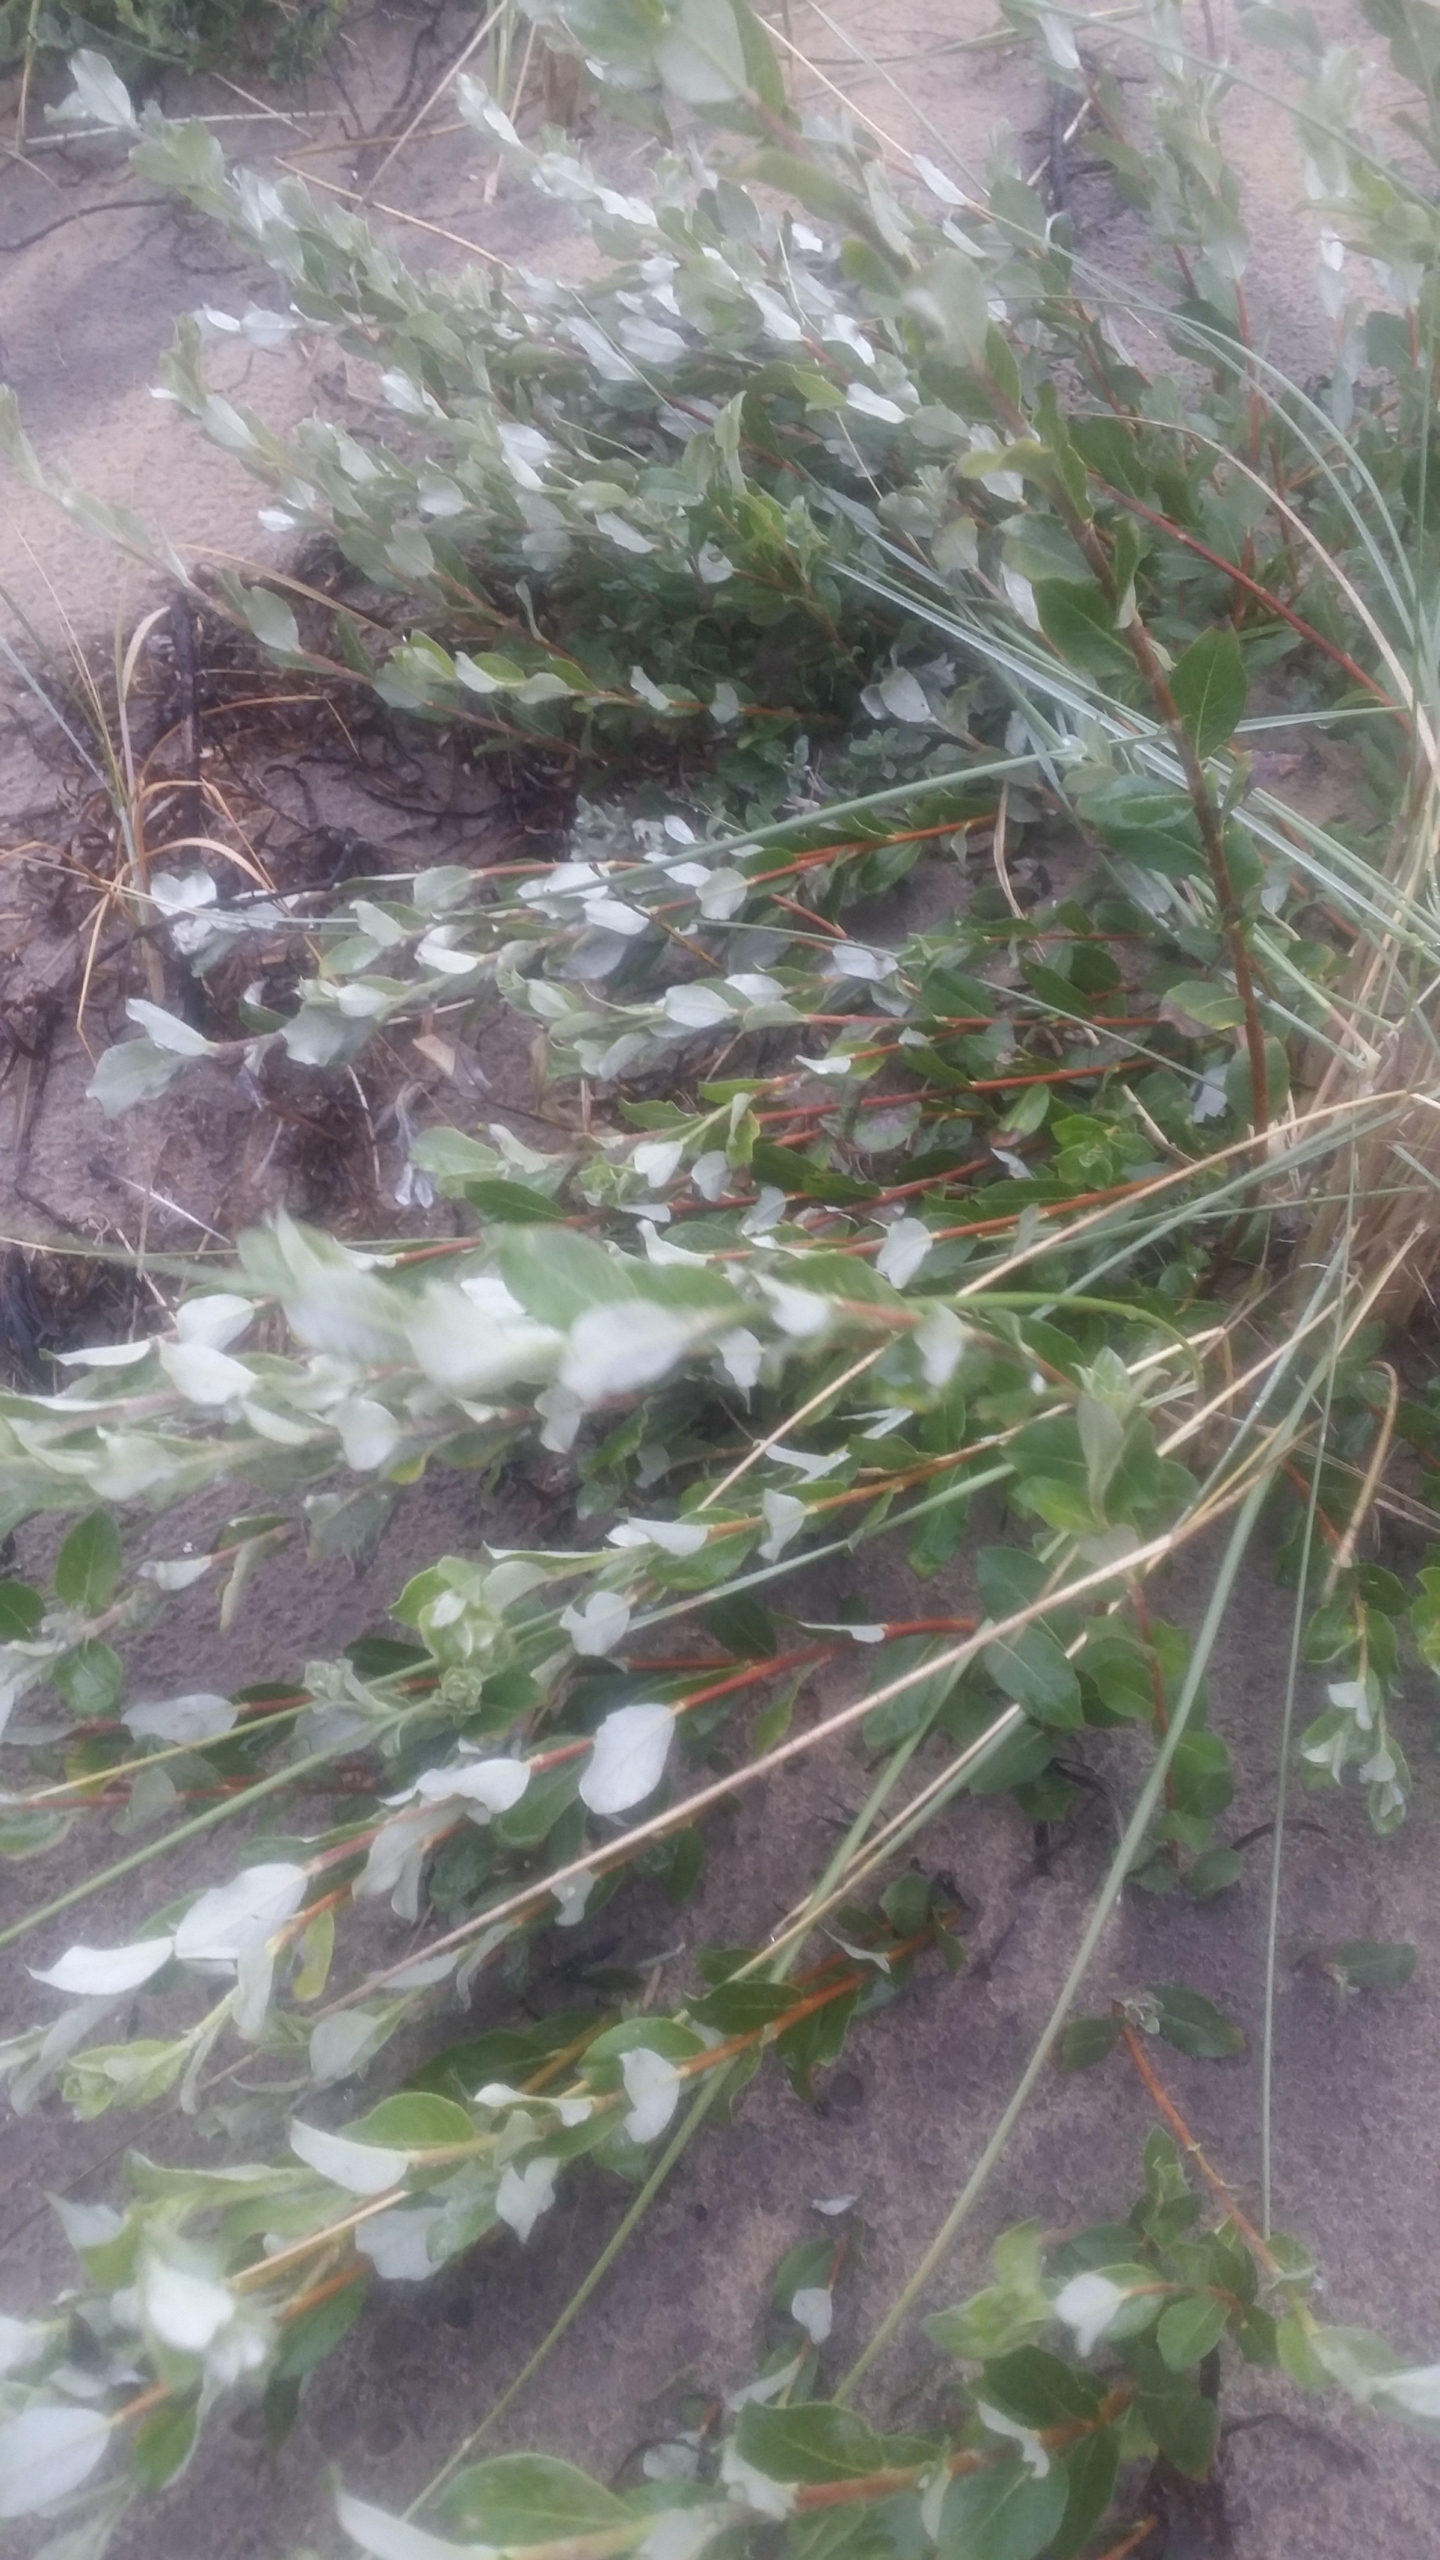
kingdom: Plantae
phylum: Tracheophyta
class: Magnoliopsida
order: Malpighiales
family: Salicaceae
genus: Salix
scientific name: Salix repens
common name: Krybende pil
